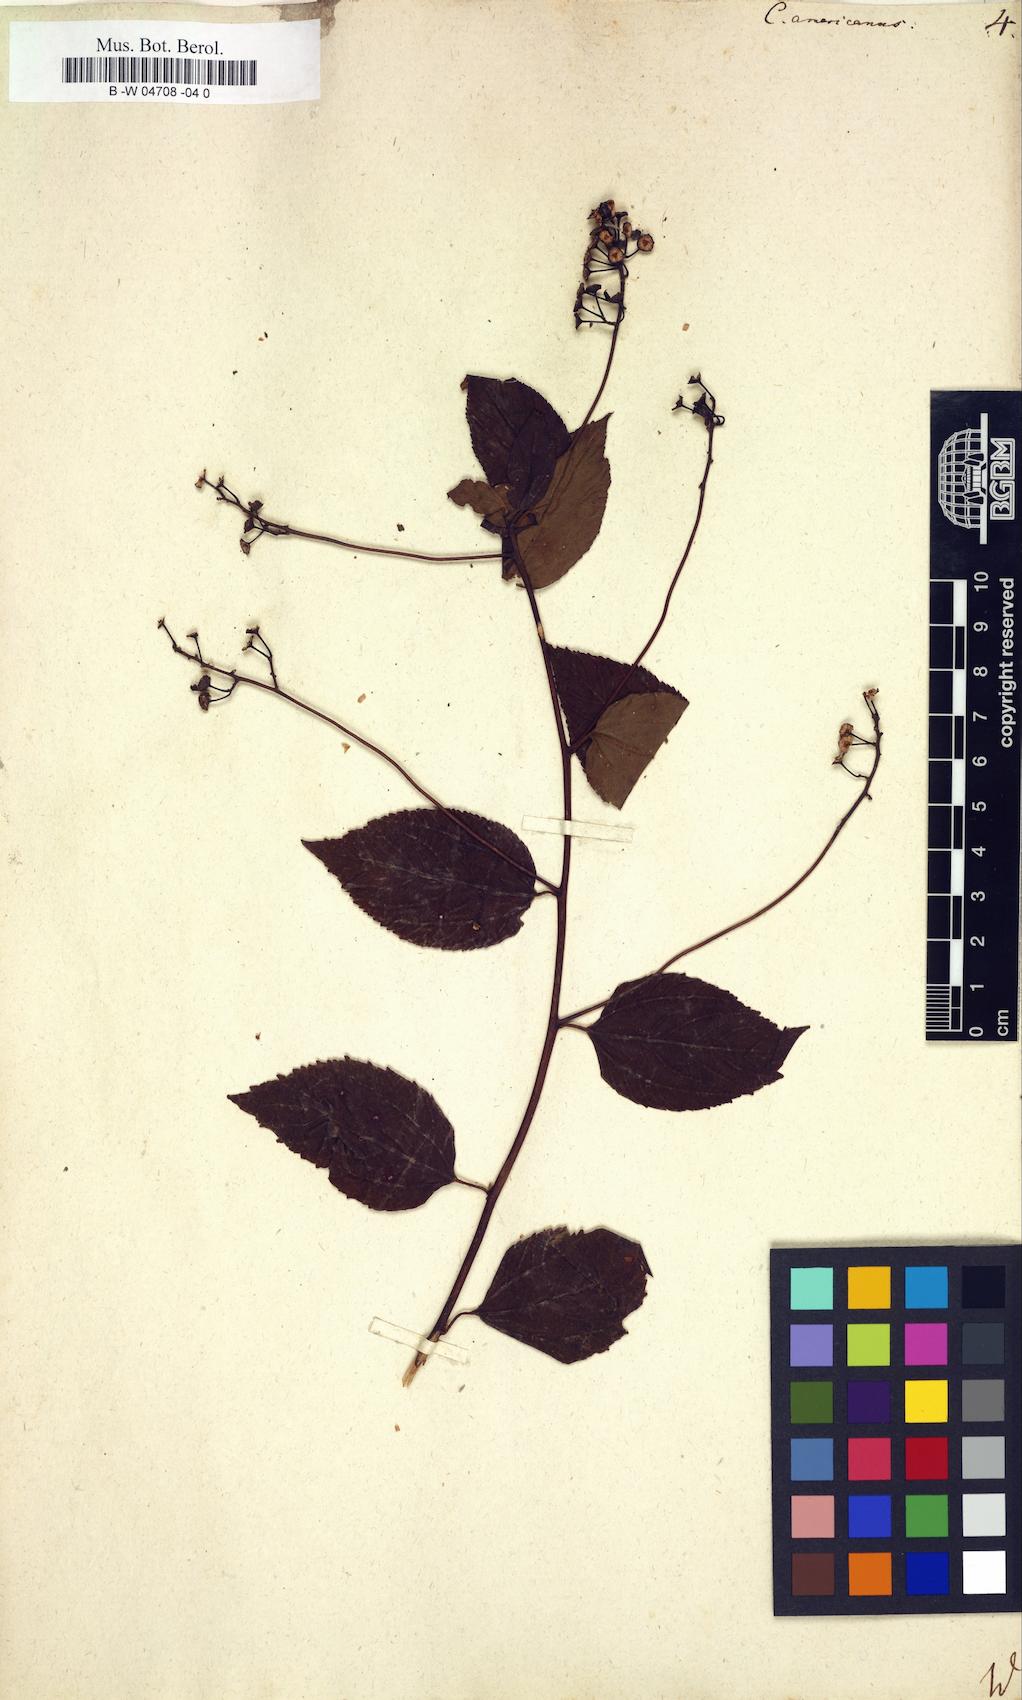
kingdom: Plantae
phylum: Tracheophyta
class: Magnoliopsida
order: Rosales
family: Rhamnaceae
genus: Ceanothus
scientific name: Ceanothus americanus
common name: Redroot
